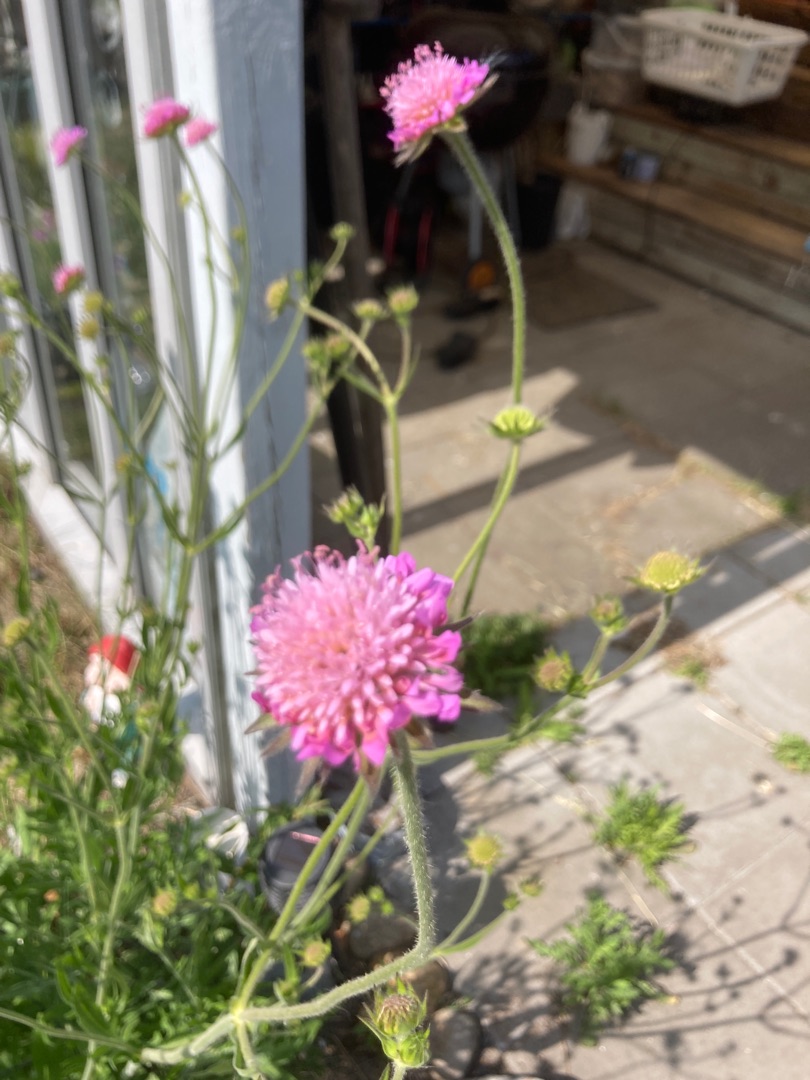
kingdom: Plantae
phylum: Tracheophyta
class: Magnoliopsida
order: Dipsacales
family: Caprifoliaceae
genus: Knautia
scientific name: Knautia arvensis
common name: Blåhat
